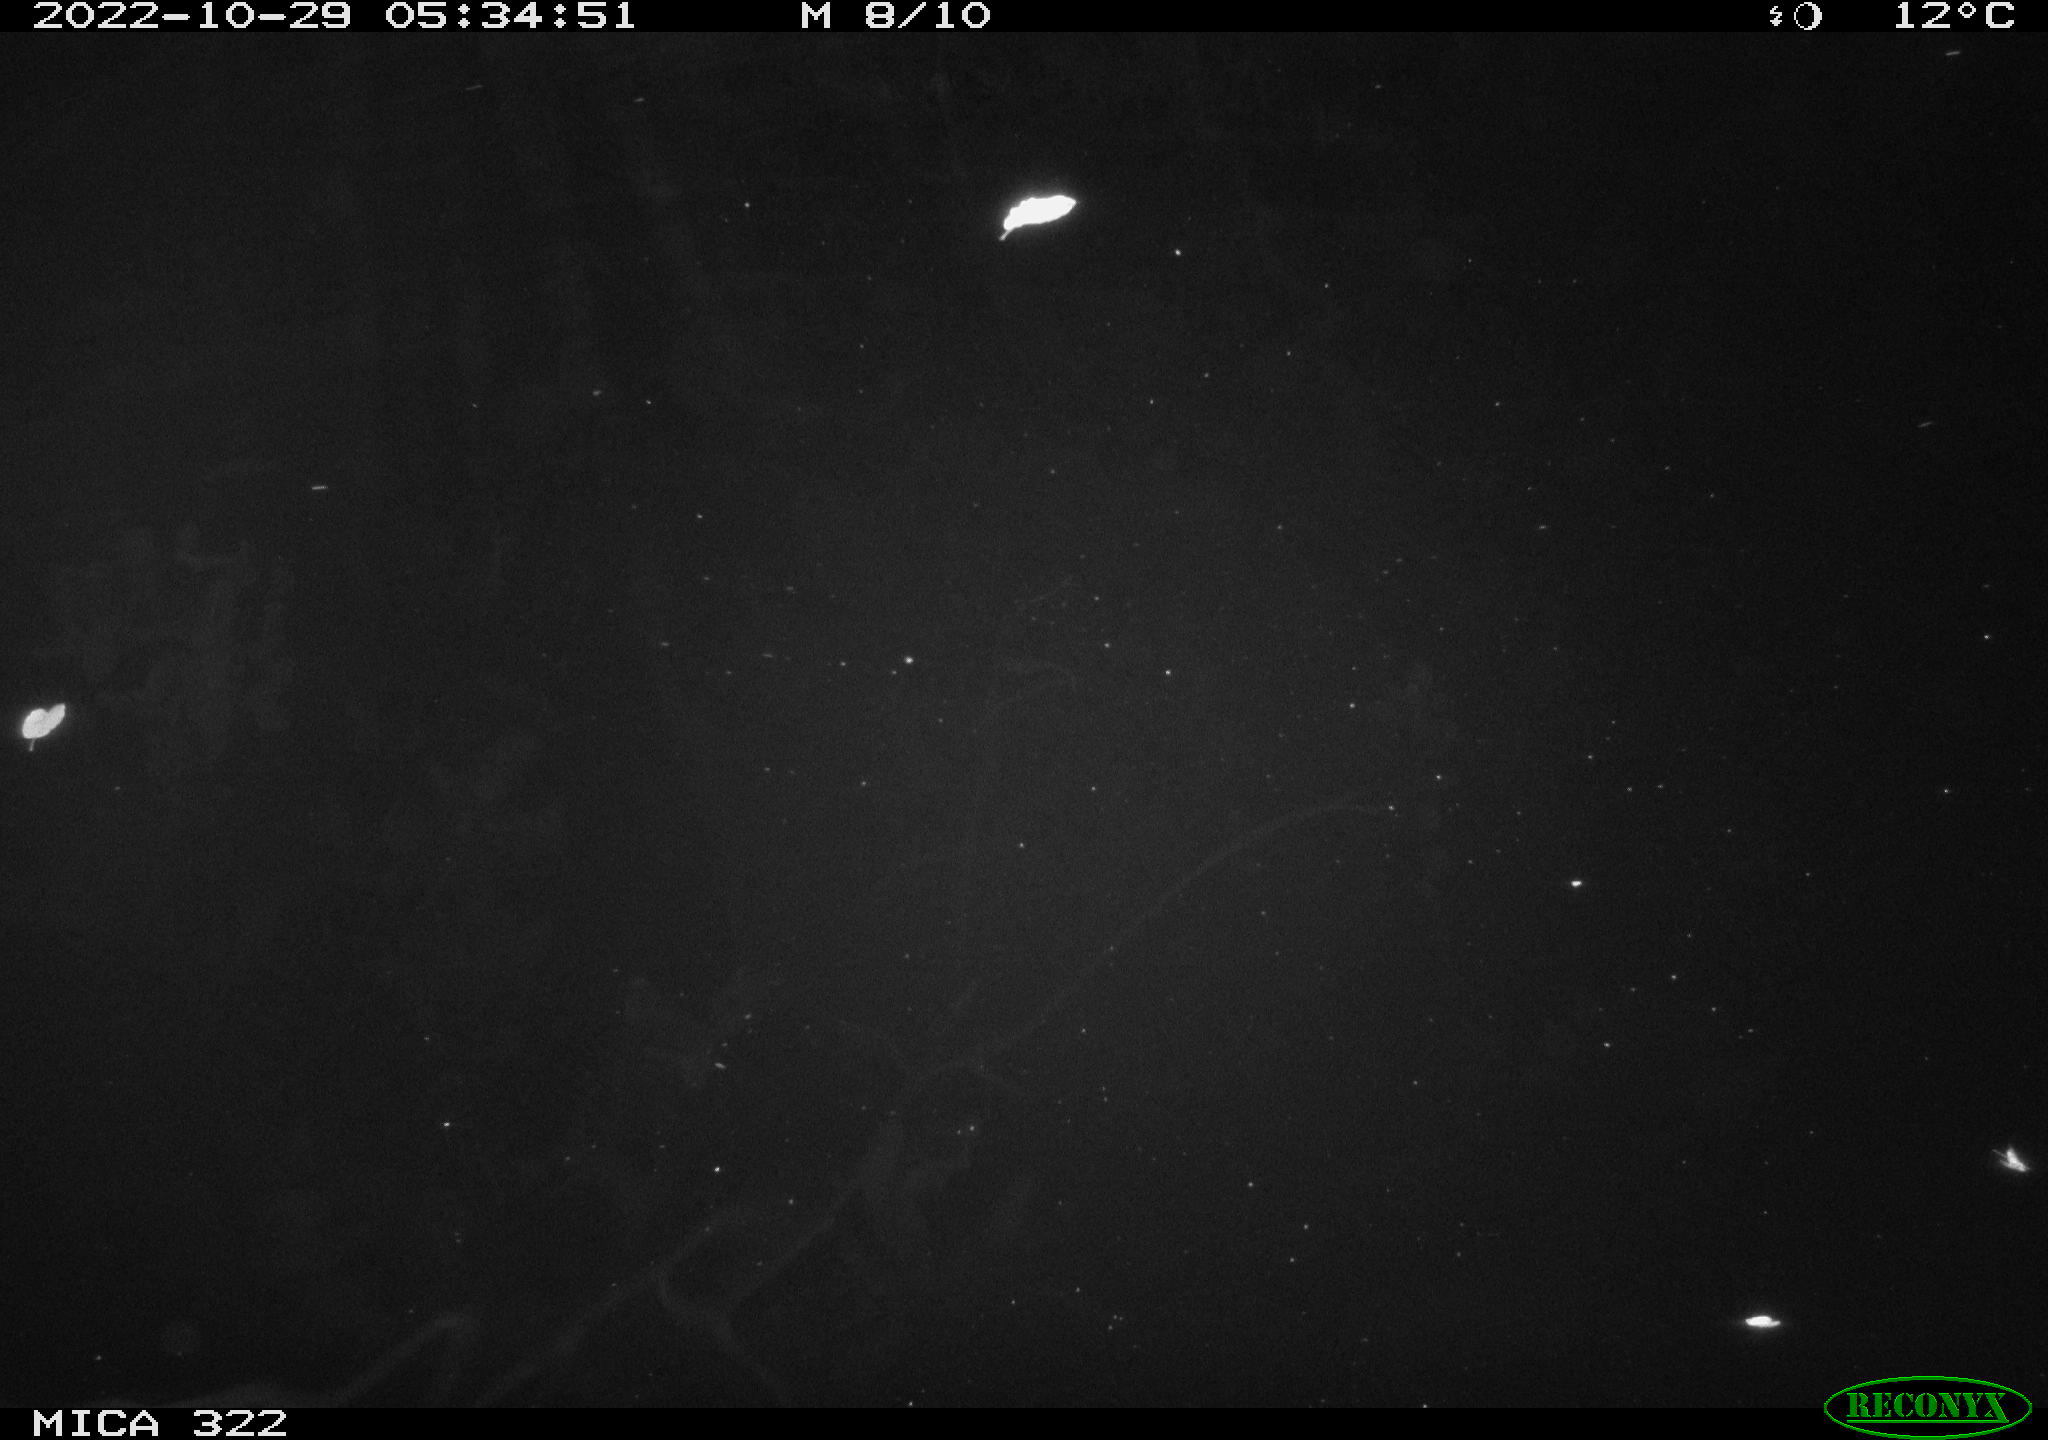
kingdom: Animalia
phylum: Chordata
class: Mammalia
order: Rodentia
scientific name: Rodentia
